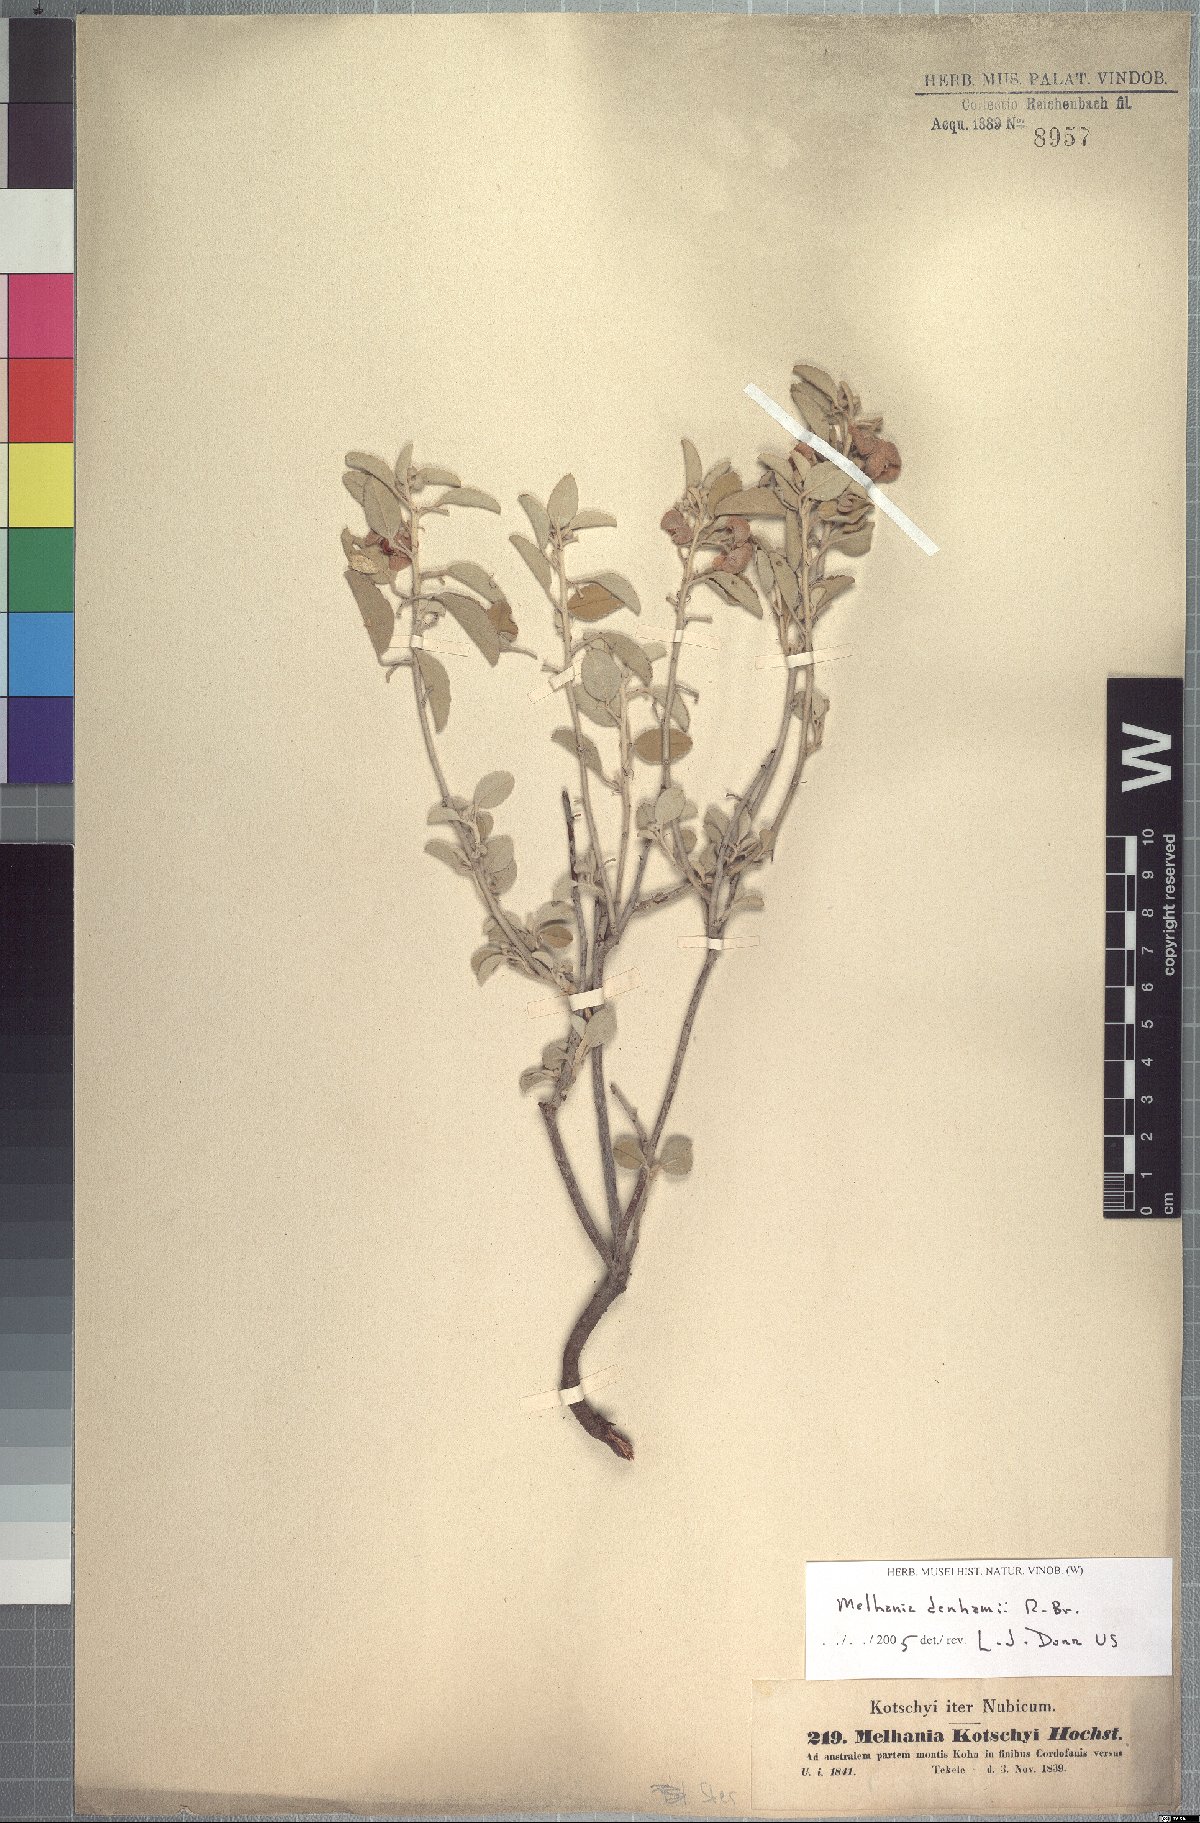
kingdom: Plantae
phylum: Tracheophyta
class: Magnoliopsida
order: Malvales
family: Malvaceae
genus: Melhania
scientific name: Melhania denhamii
